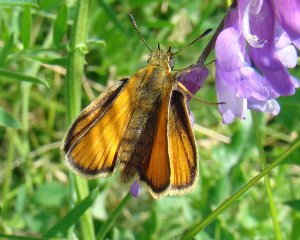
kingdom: Animalia
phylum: Arthropoda
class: Insecta
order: Lepidoptera
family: Hesperiidae
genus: Thymelicus
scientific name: Thymelicus lineola
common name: European Skipper
